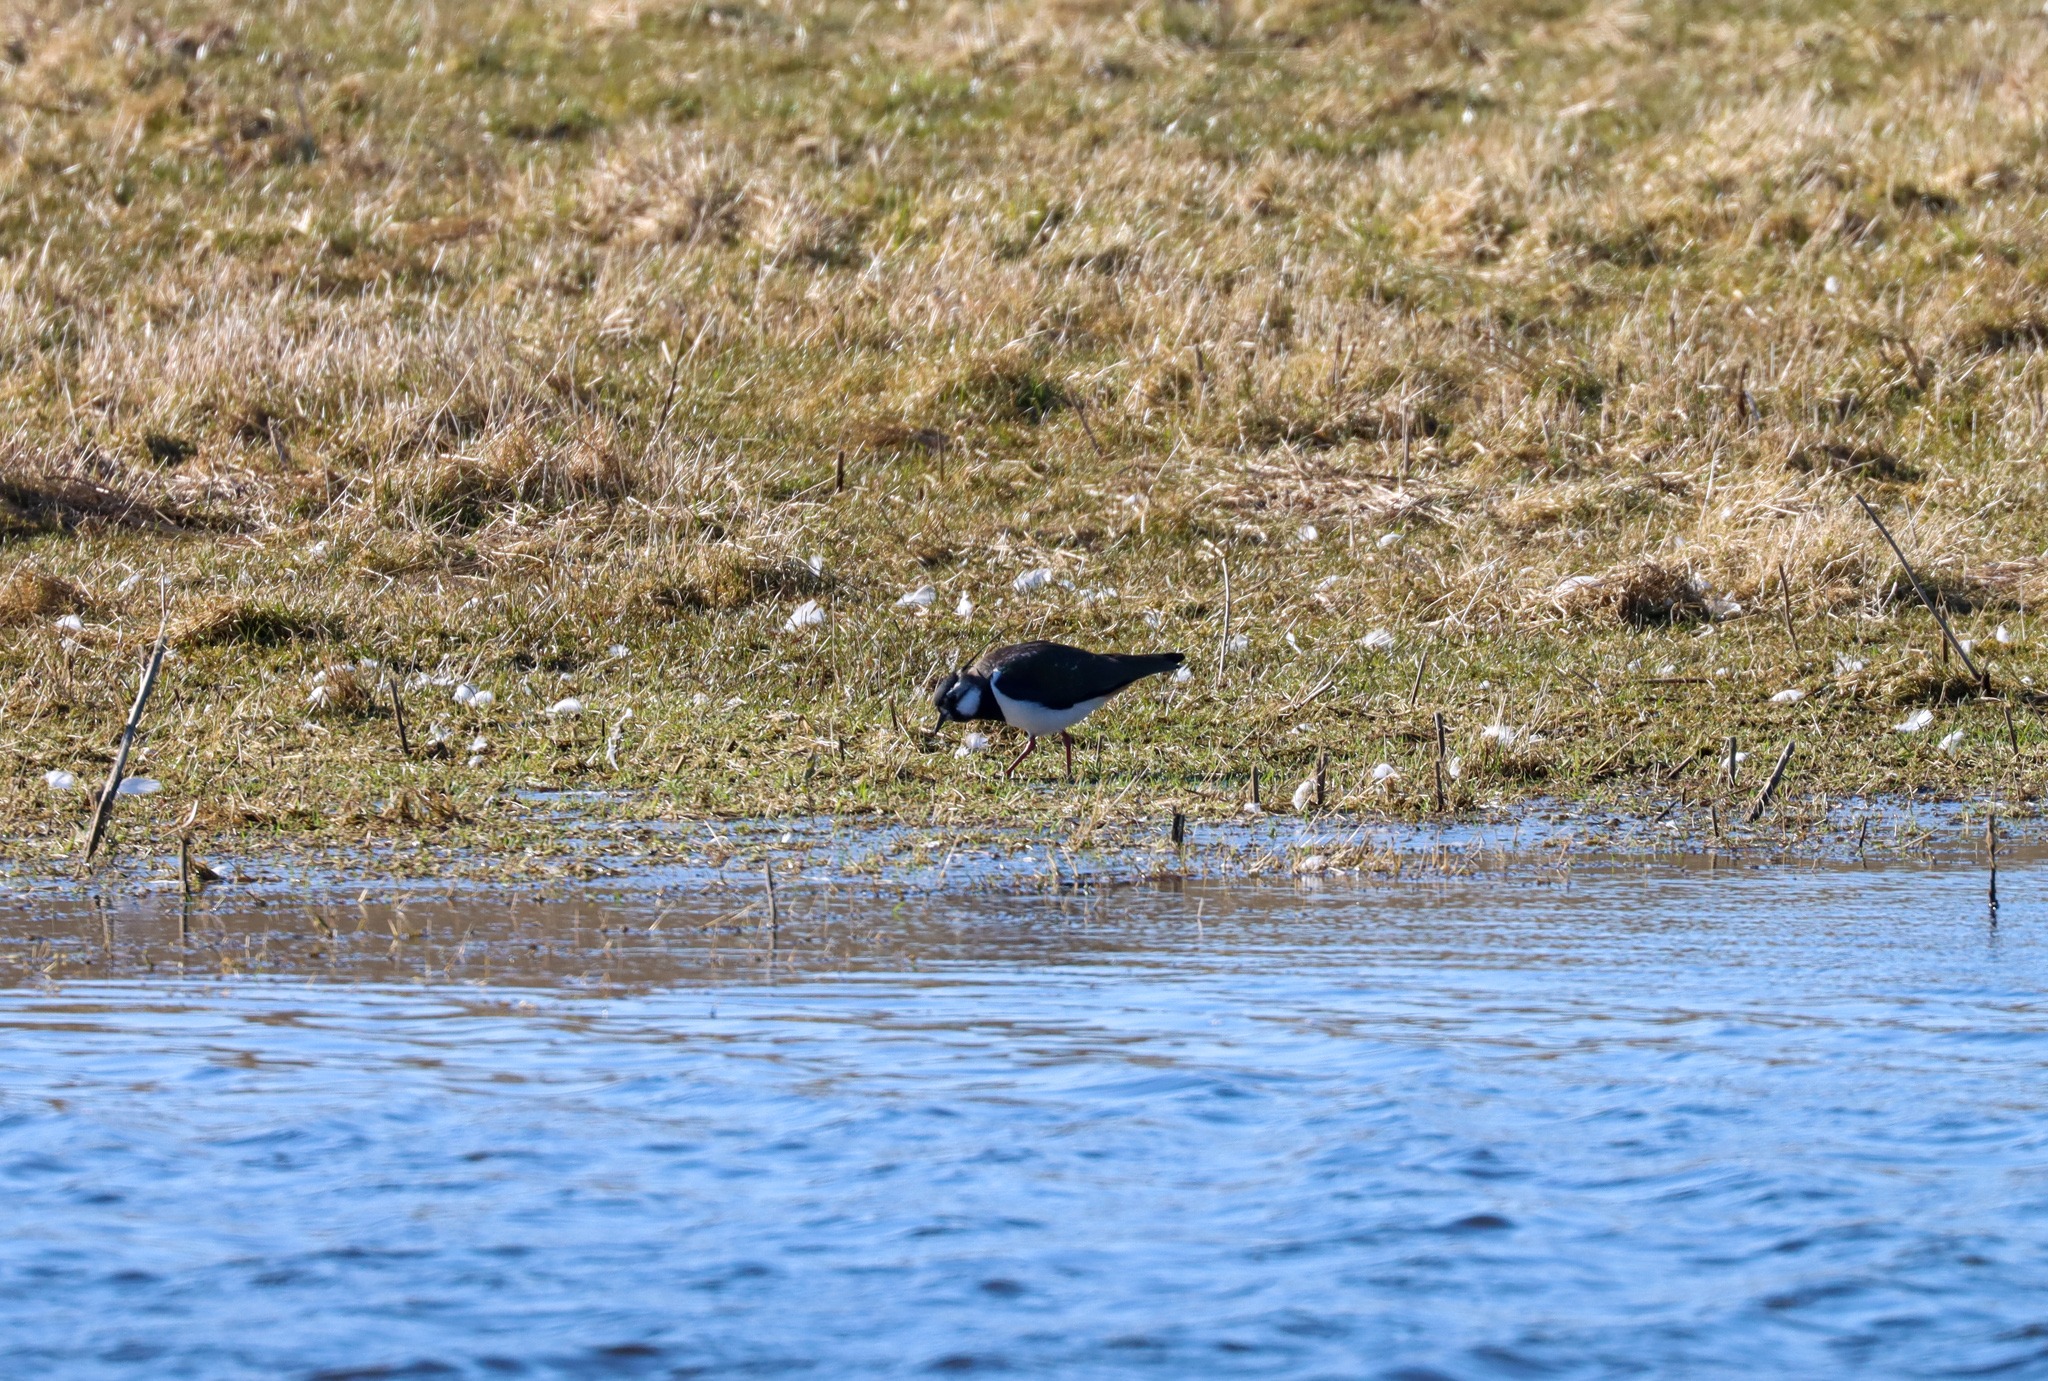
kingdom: Animalia
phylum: Chordata
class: Aves
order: Charadriiformes
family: Charadriidae
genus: Vanellus
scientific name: Vanellus vanellus
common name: Vibe
